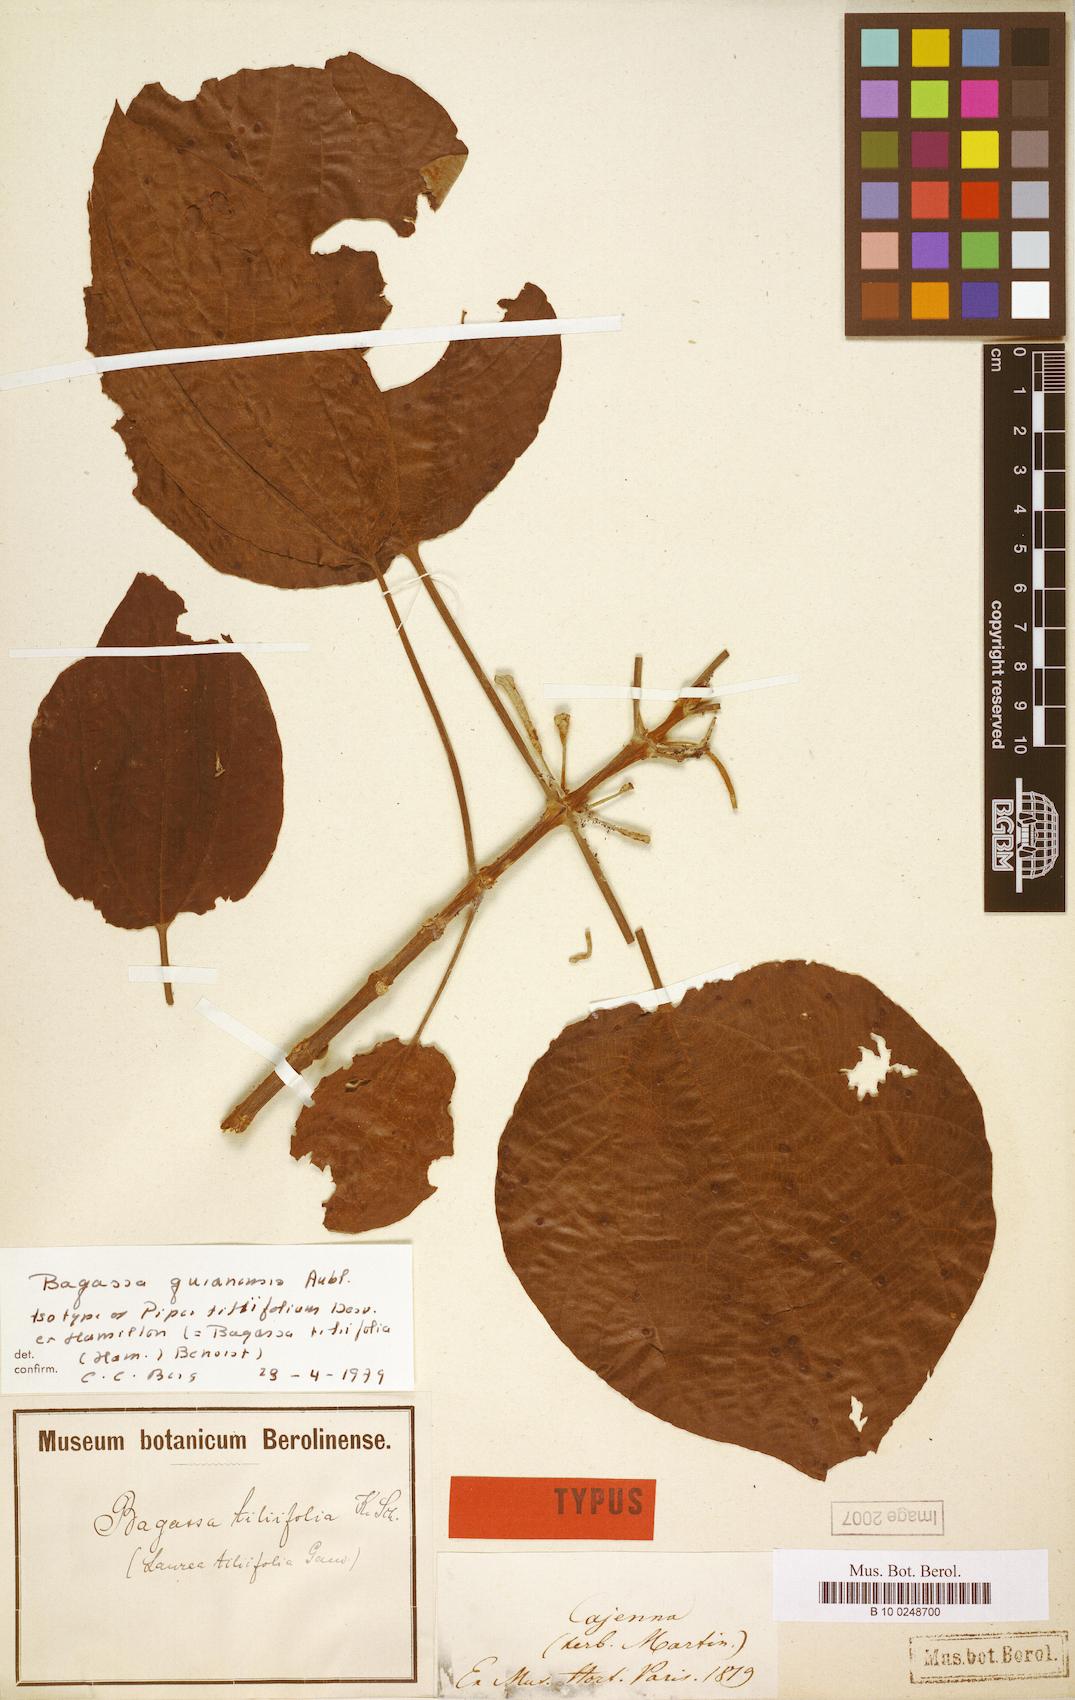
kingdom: Plantae
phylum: Tracheophyta
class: Magnoliopsida
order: Rosales
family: Moraceae
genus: Bagassa
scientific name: Bagassa guianensis
